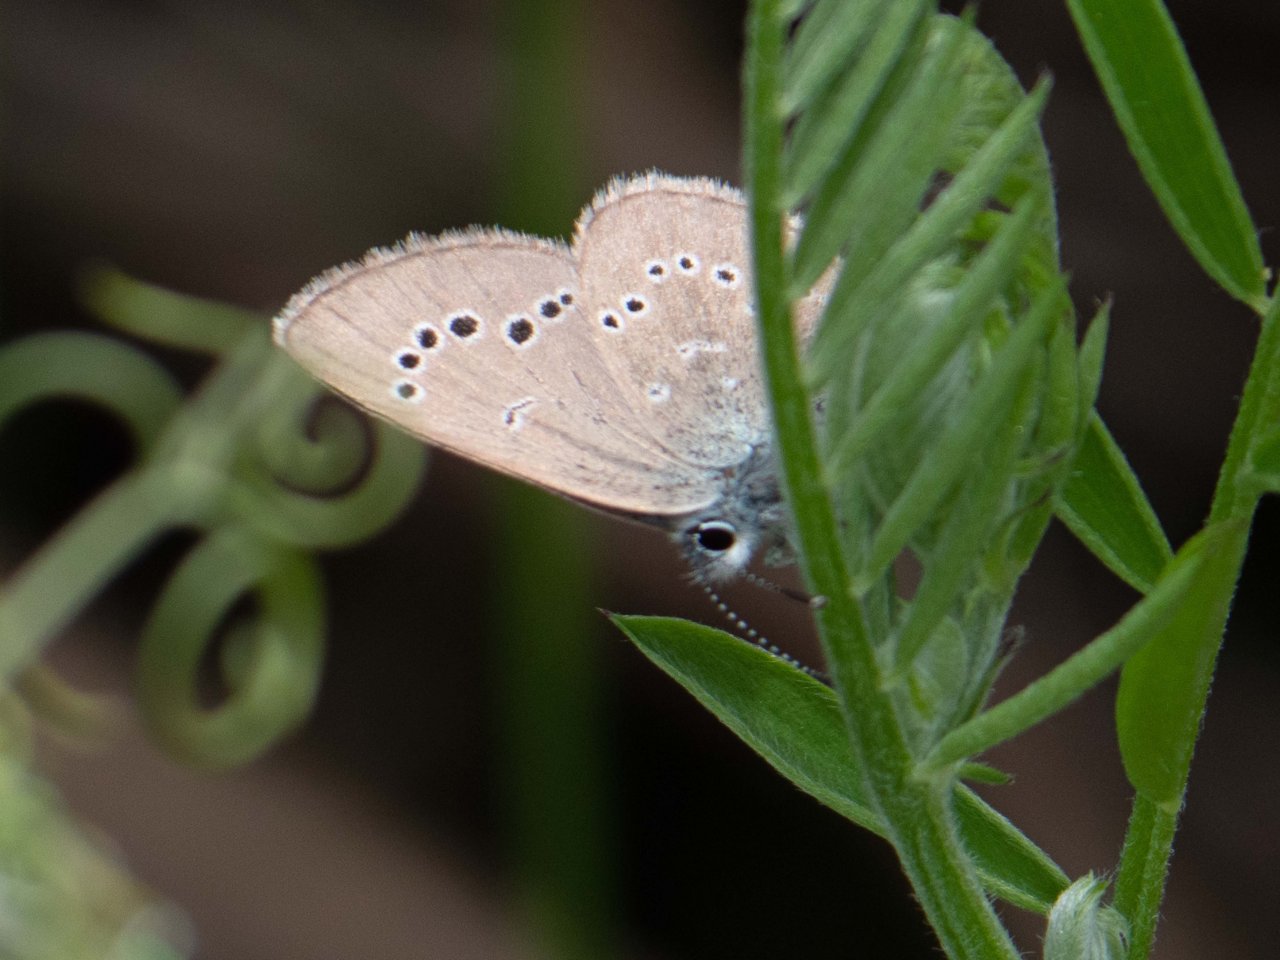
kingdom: Animalia
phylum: Arthropoda
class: Insecta
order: Lepidoptera
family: Lycaenidae
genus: Glaucopsyche
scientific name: Glaucopsyche lygdamus
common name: Silvery Blue
